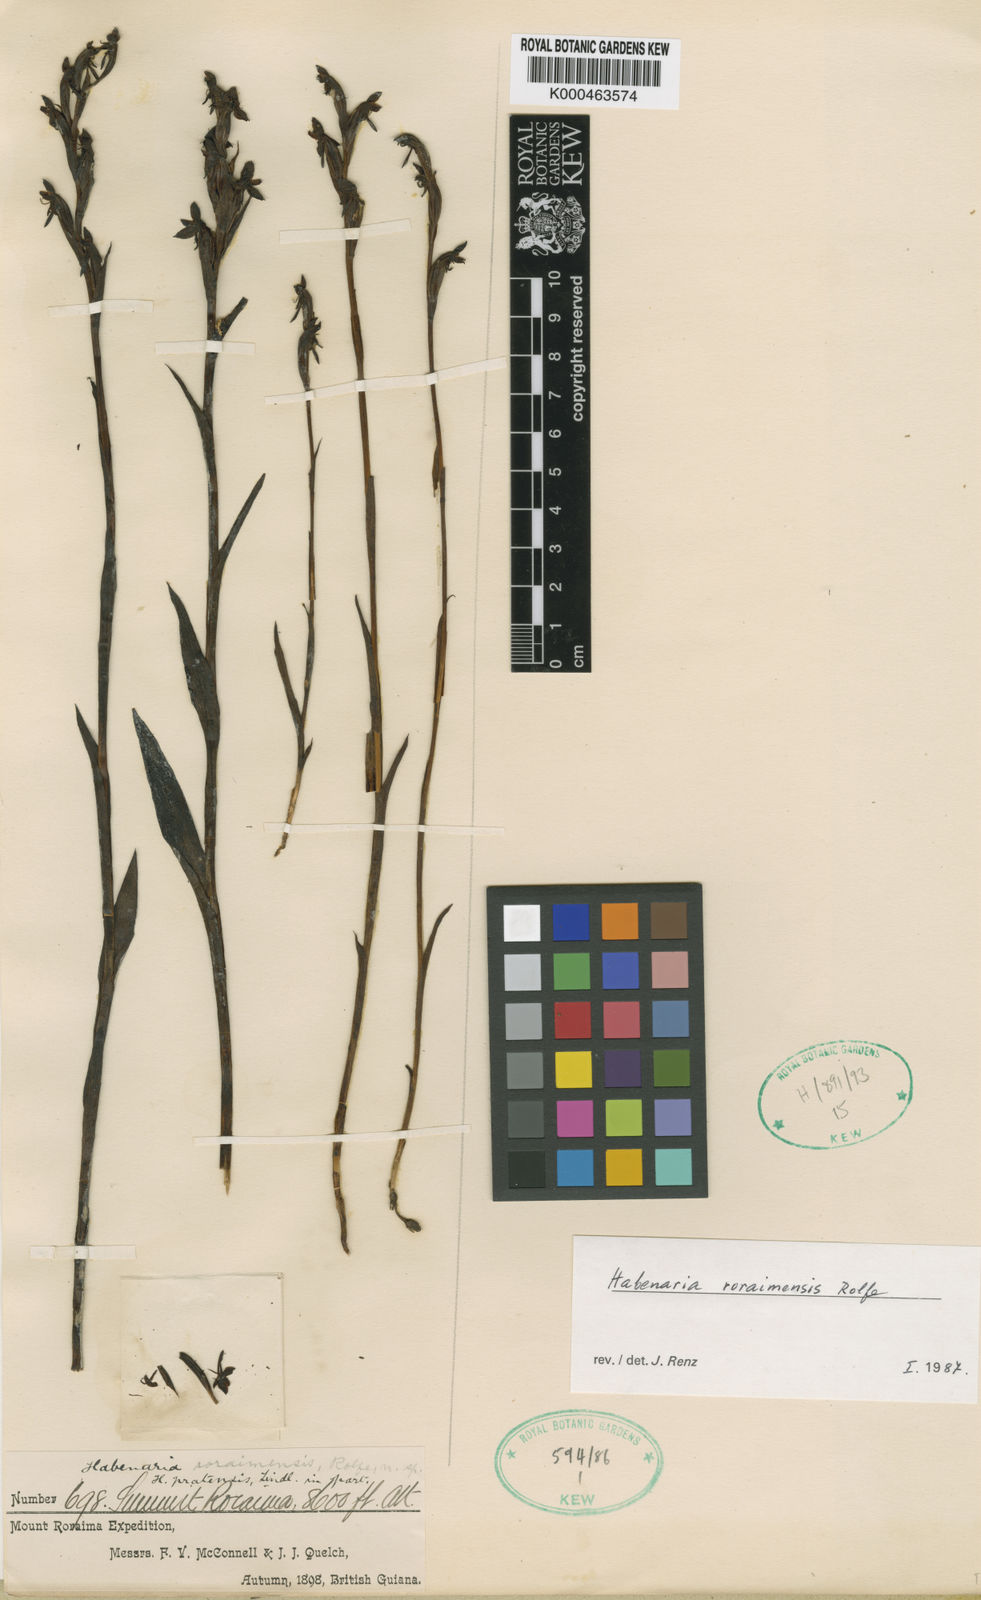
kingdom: Plantae
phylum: Tracheophyta
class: Liliopsida
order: Asparagales
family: Orchidaceae
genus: Habenaria
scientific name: Habenaria roraimensis
